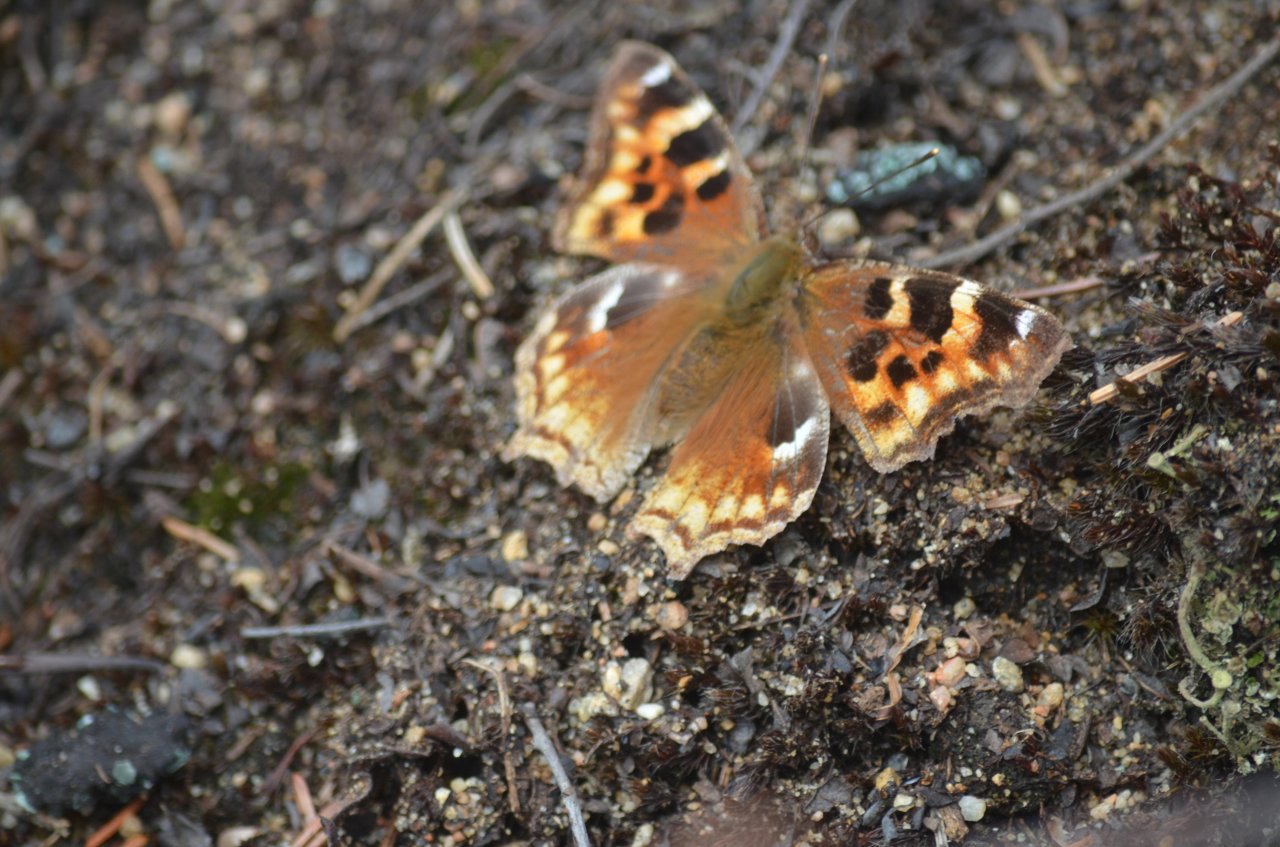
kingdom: Animalia
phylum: Arthropoda
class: Insecta
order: Lepidoptera
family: Nymphalidae
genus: Polygonia
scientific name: Polygonia vaualbum
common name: Compton Tortoiseshell
